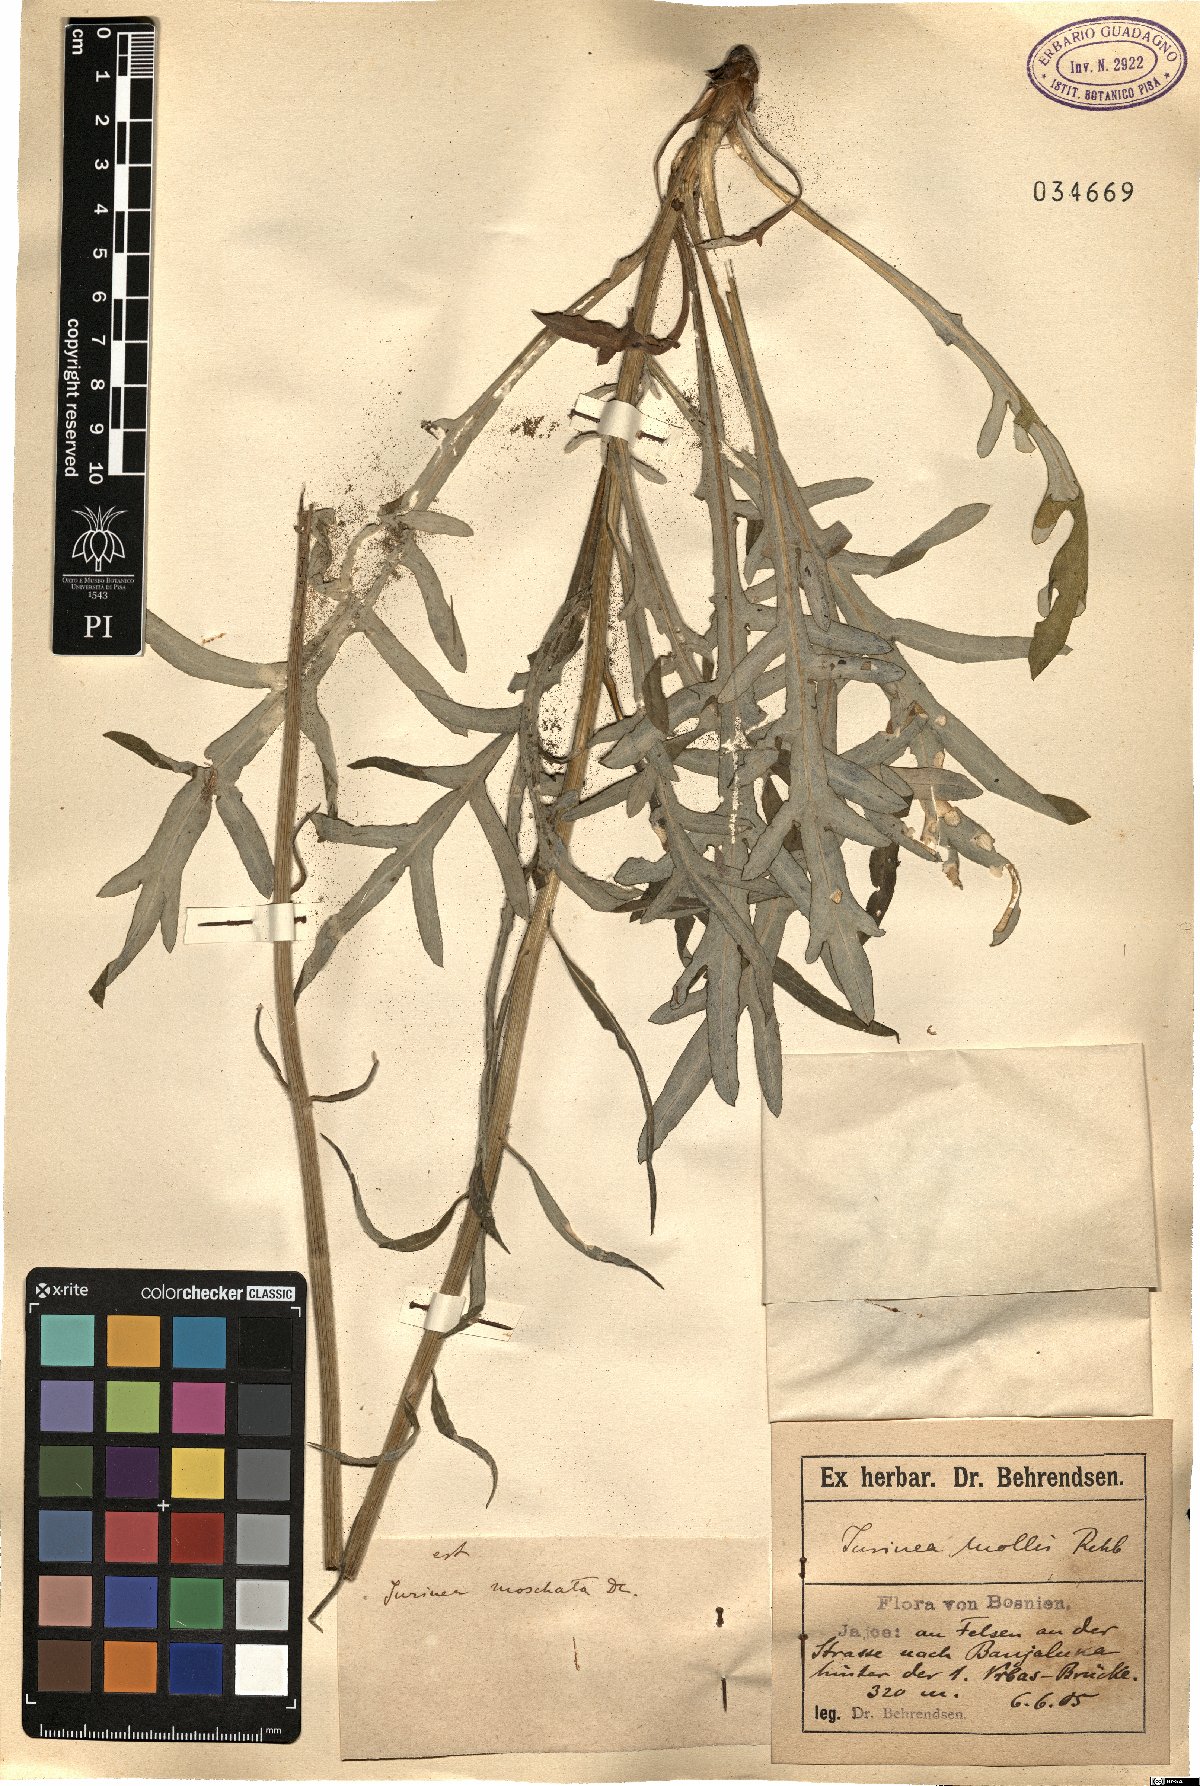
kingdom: Plantae
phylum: Tracheophyta
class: Magnoliopsida
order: Asterales
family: Asteraceae
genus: Jurinea
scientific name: Jurinea mollis
